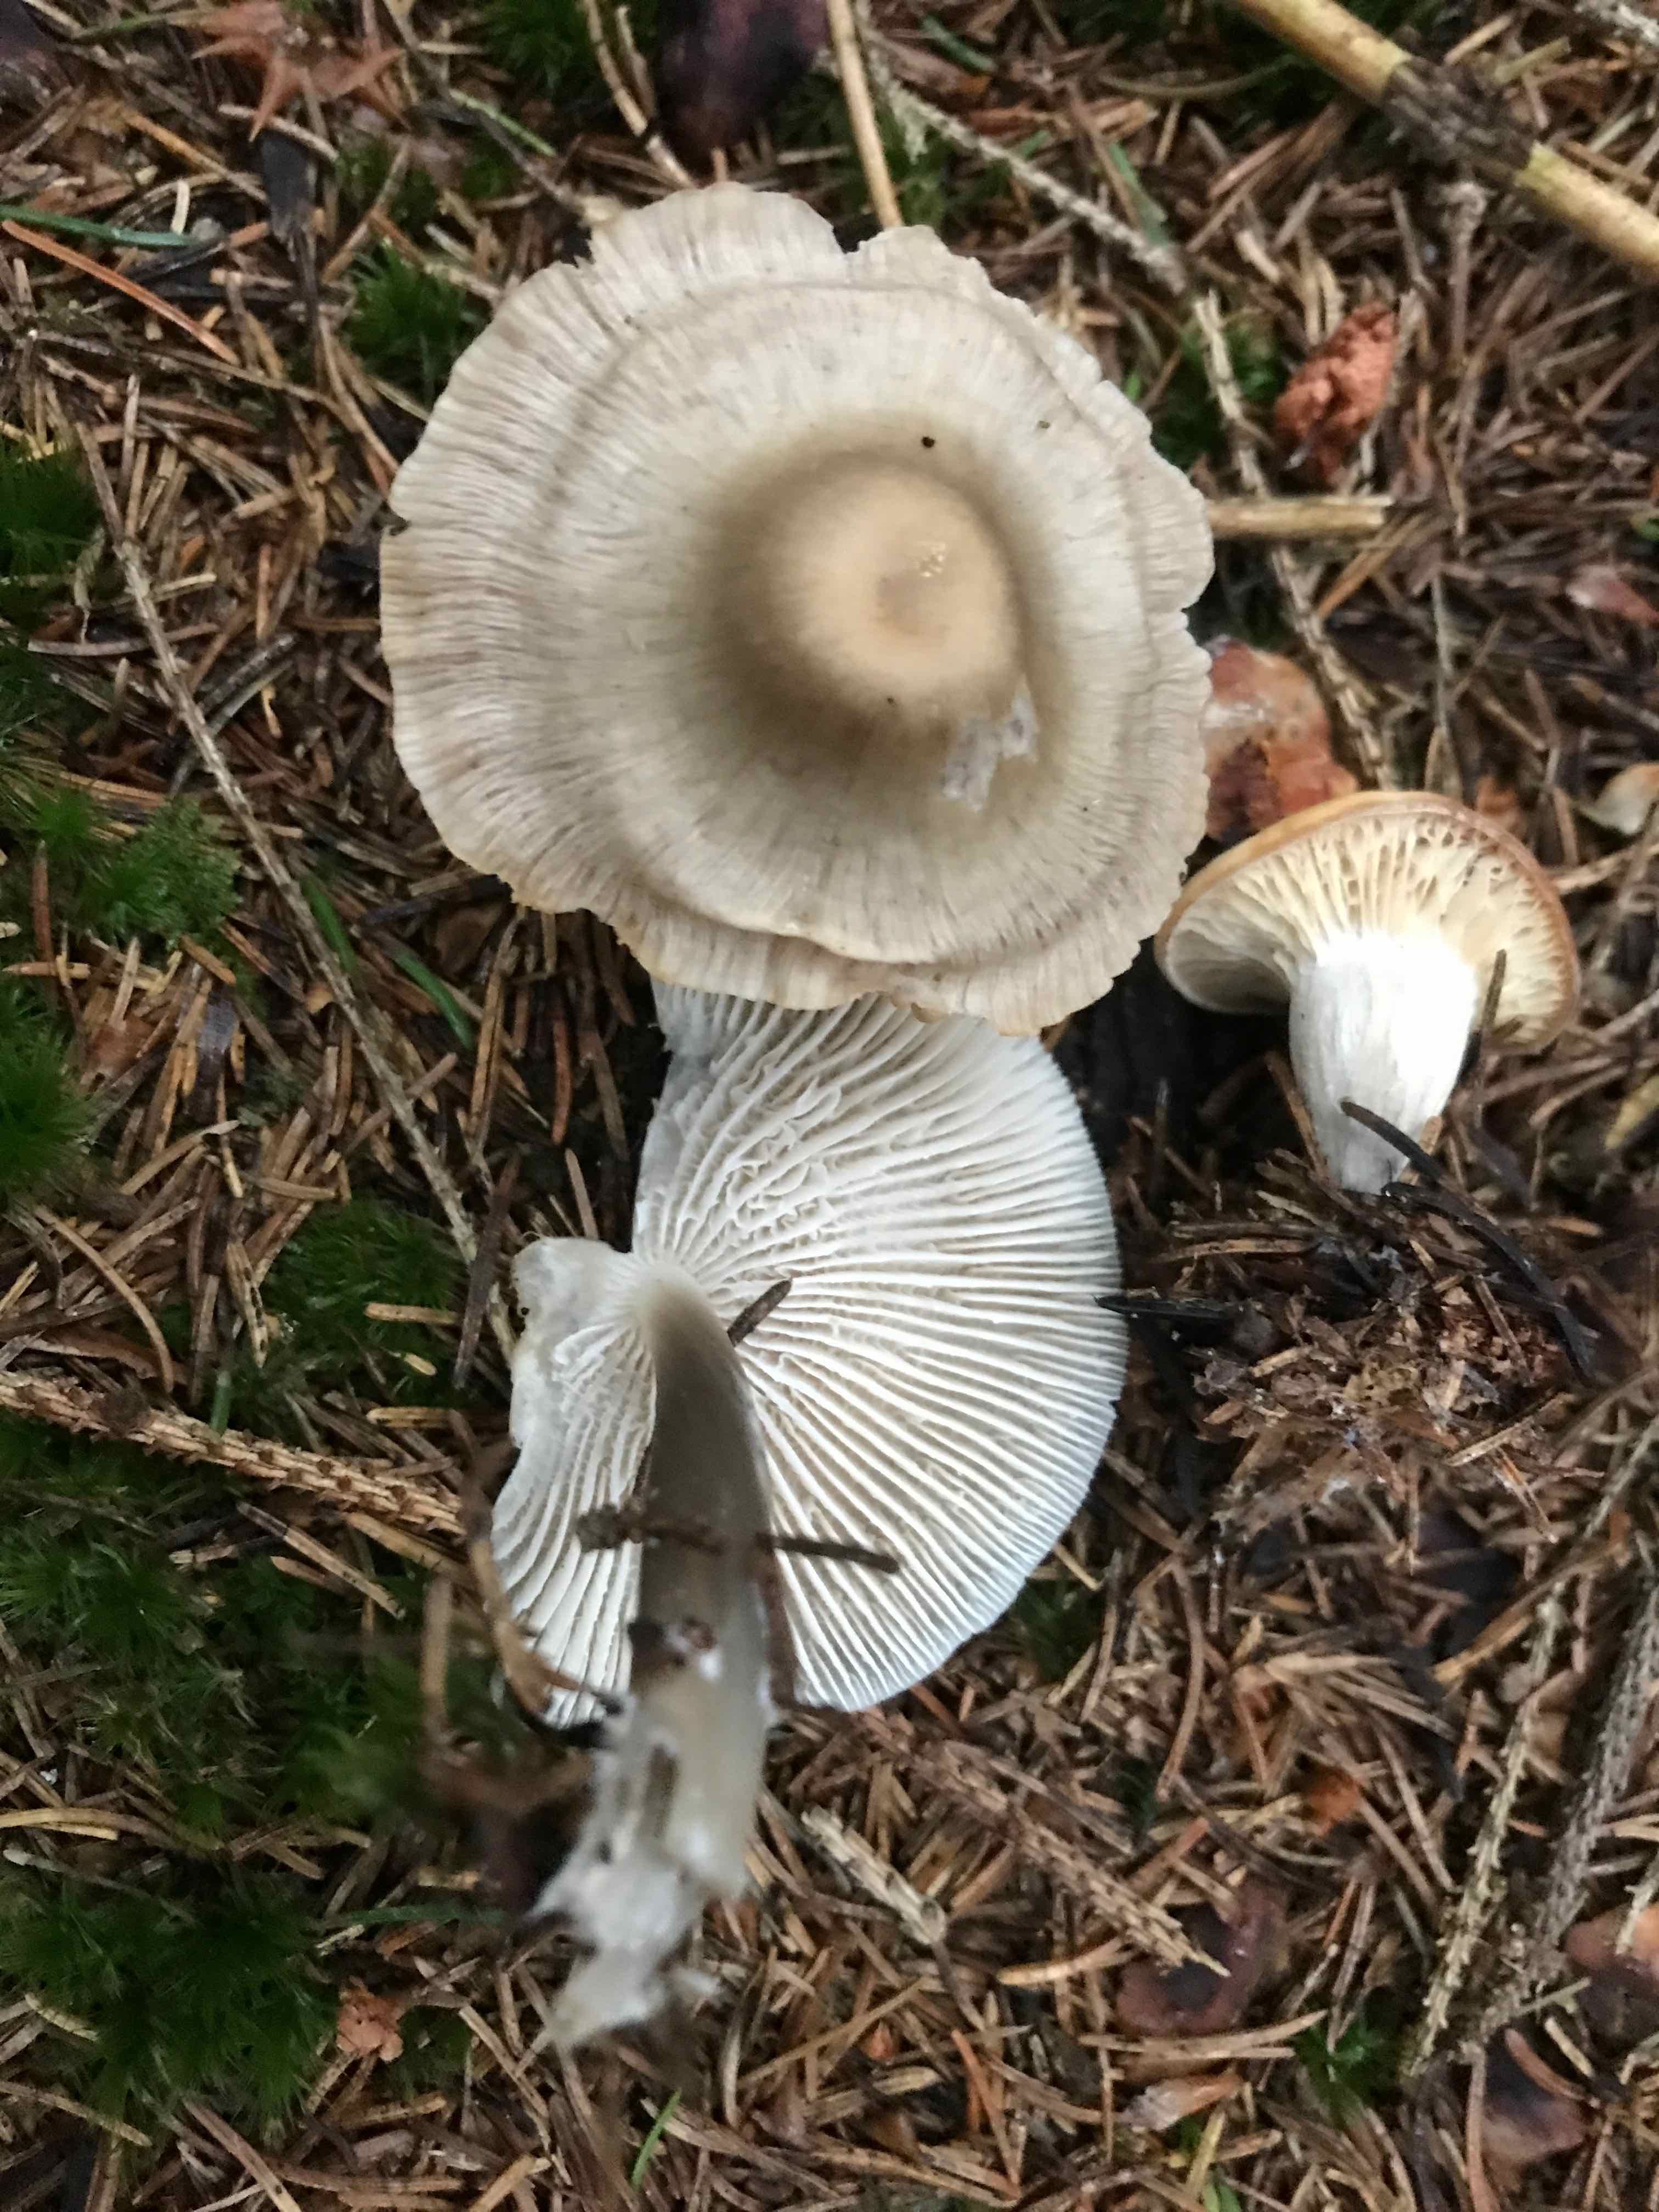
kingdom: Fungi
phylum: Basidiomycota
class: Agaricomycetes
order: Agaricales
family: Tricholomataceae
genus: Clitocybe
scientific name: Clitocybe metachroa
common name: grå tragthat
